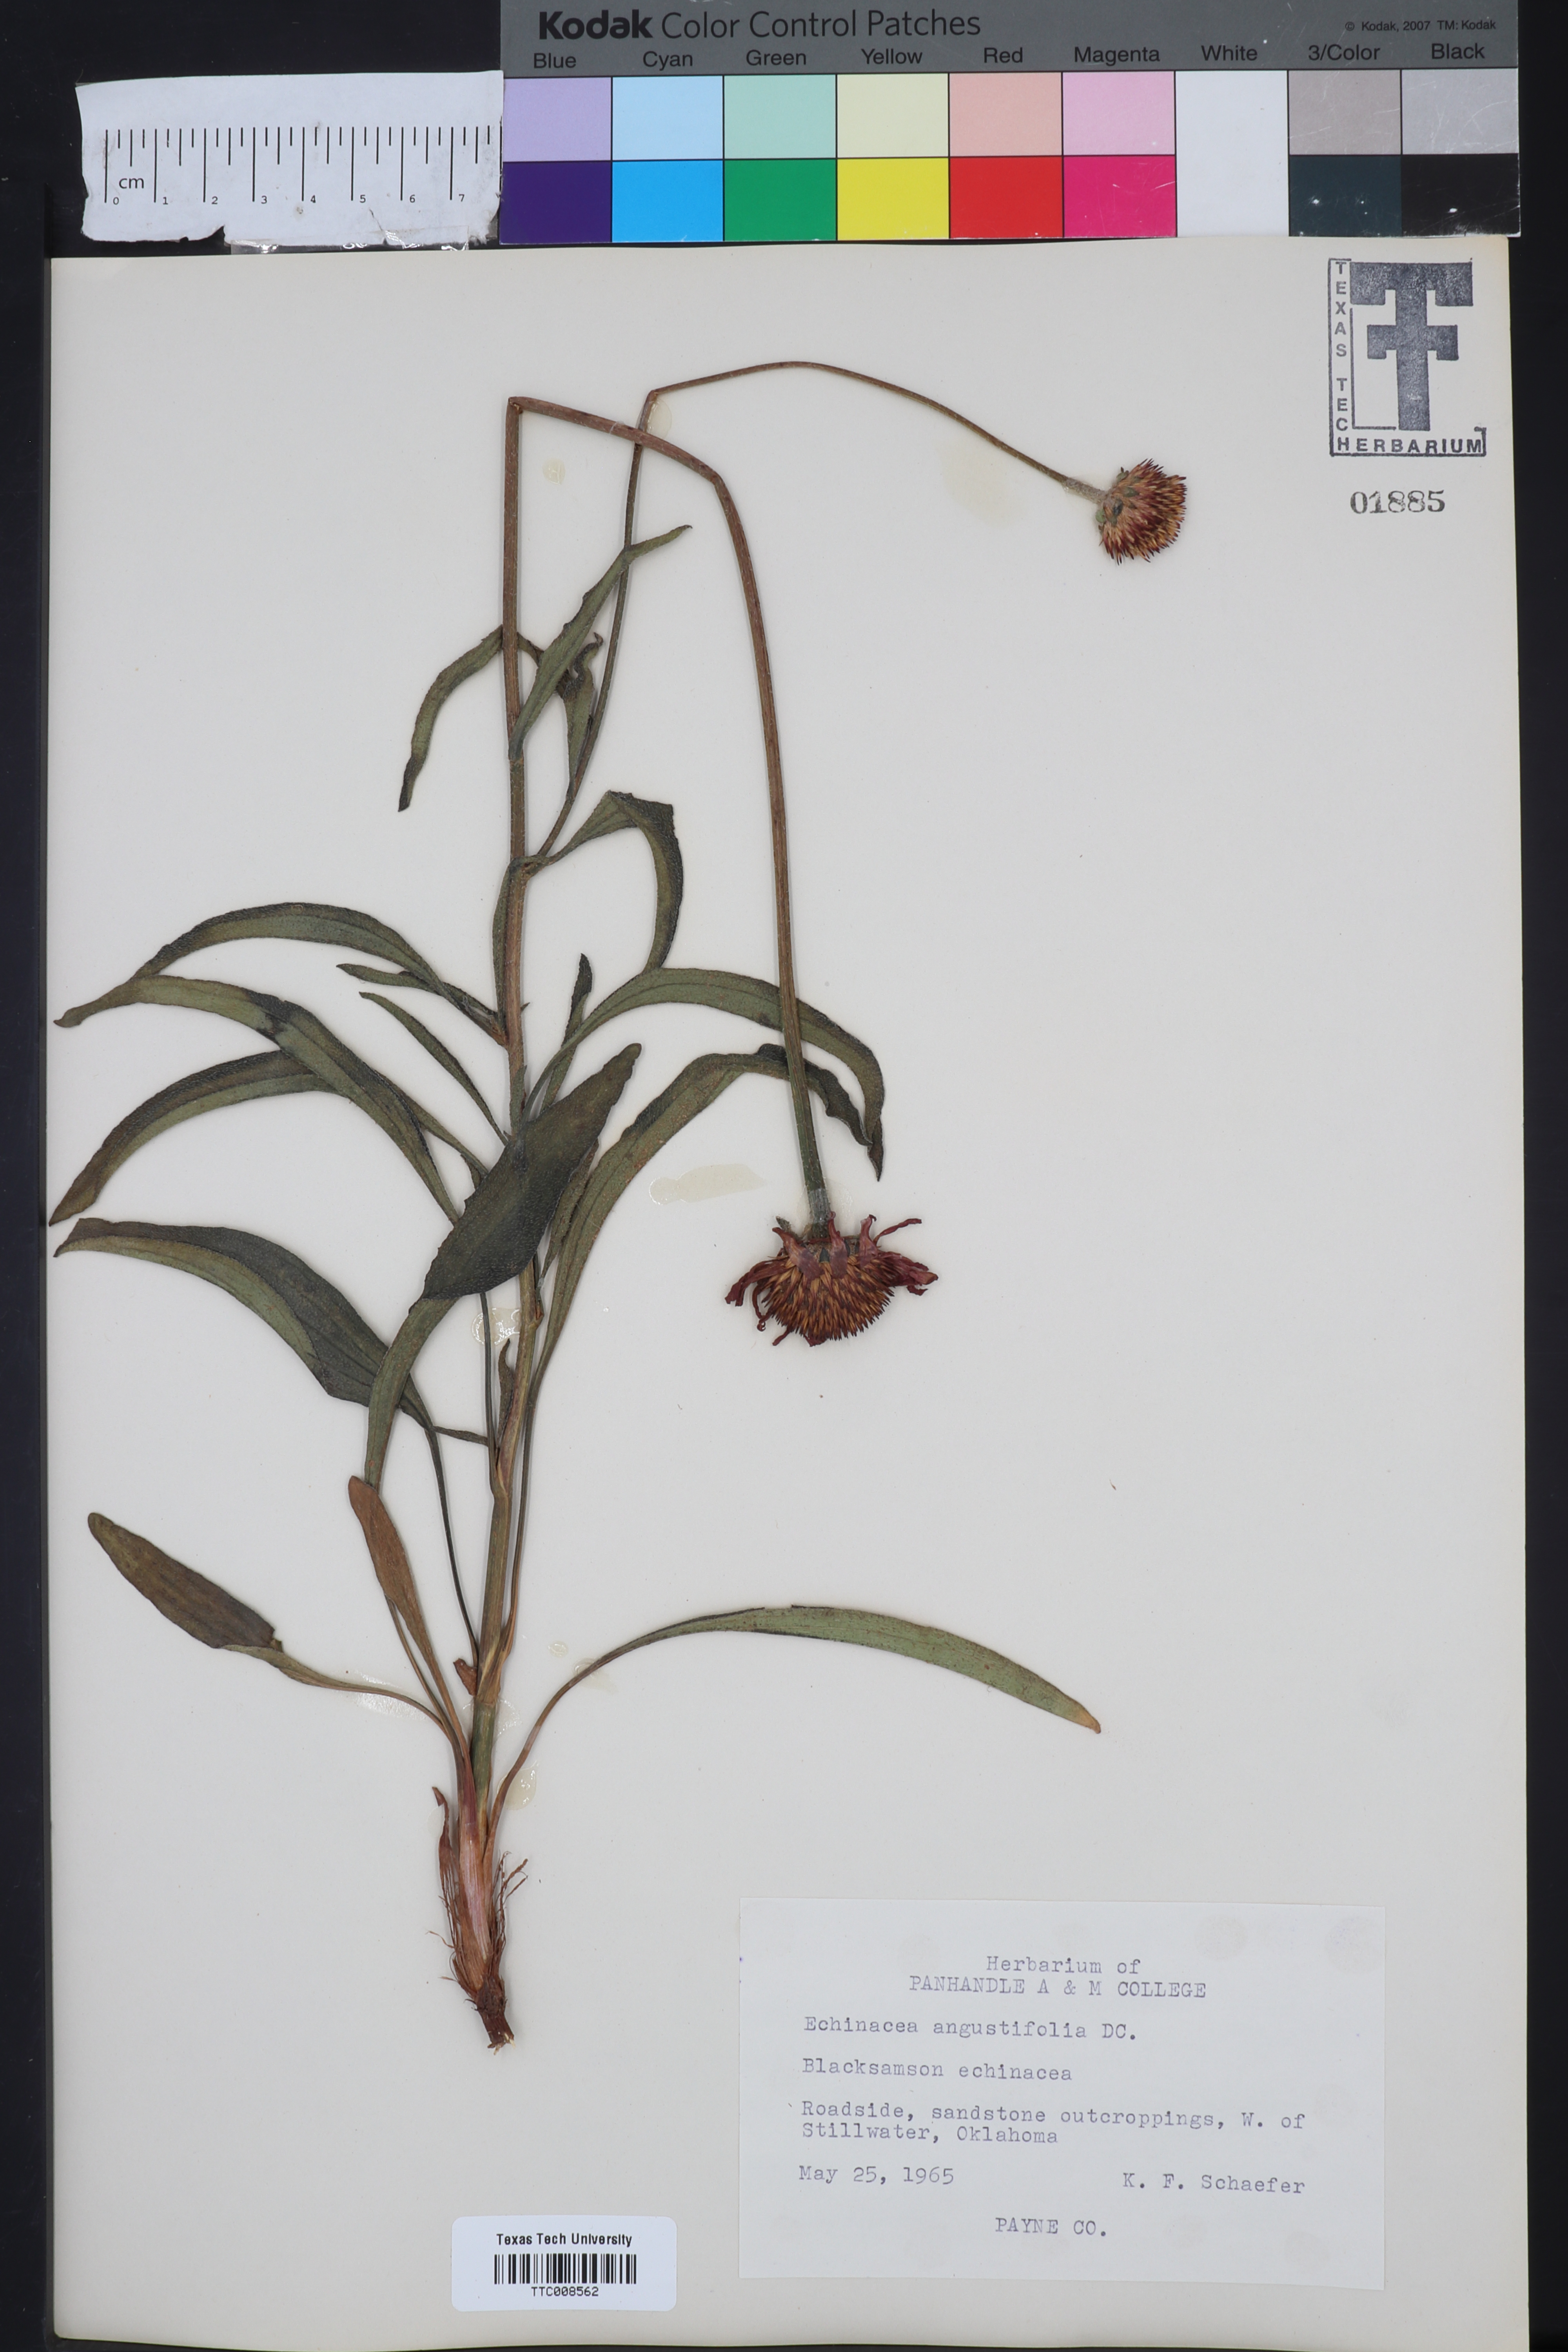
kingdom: Plantae
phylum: Tracheophyta
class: Magnoliopsida
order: Asterales
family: Asteraceae
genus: Echinacea
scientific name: Echinacea angustifolia
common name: Black-sampson echinacea
